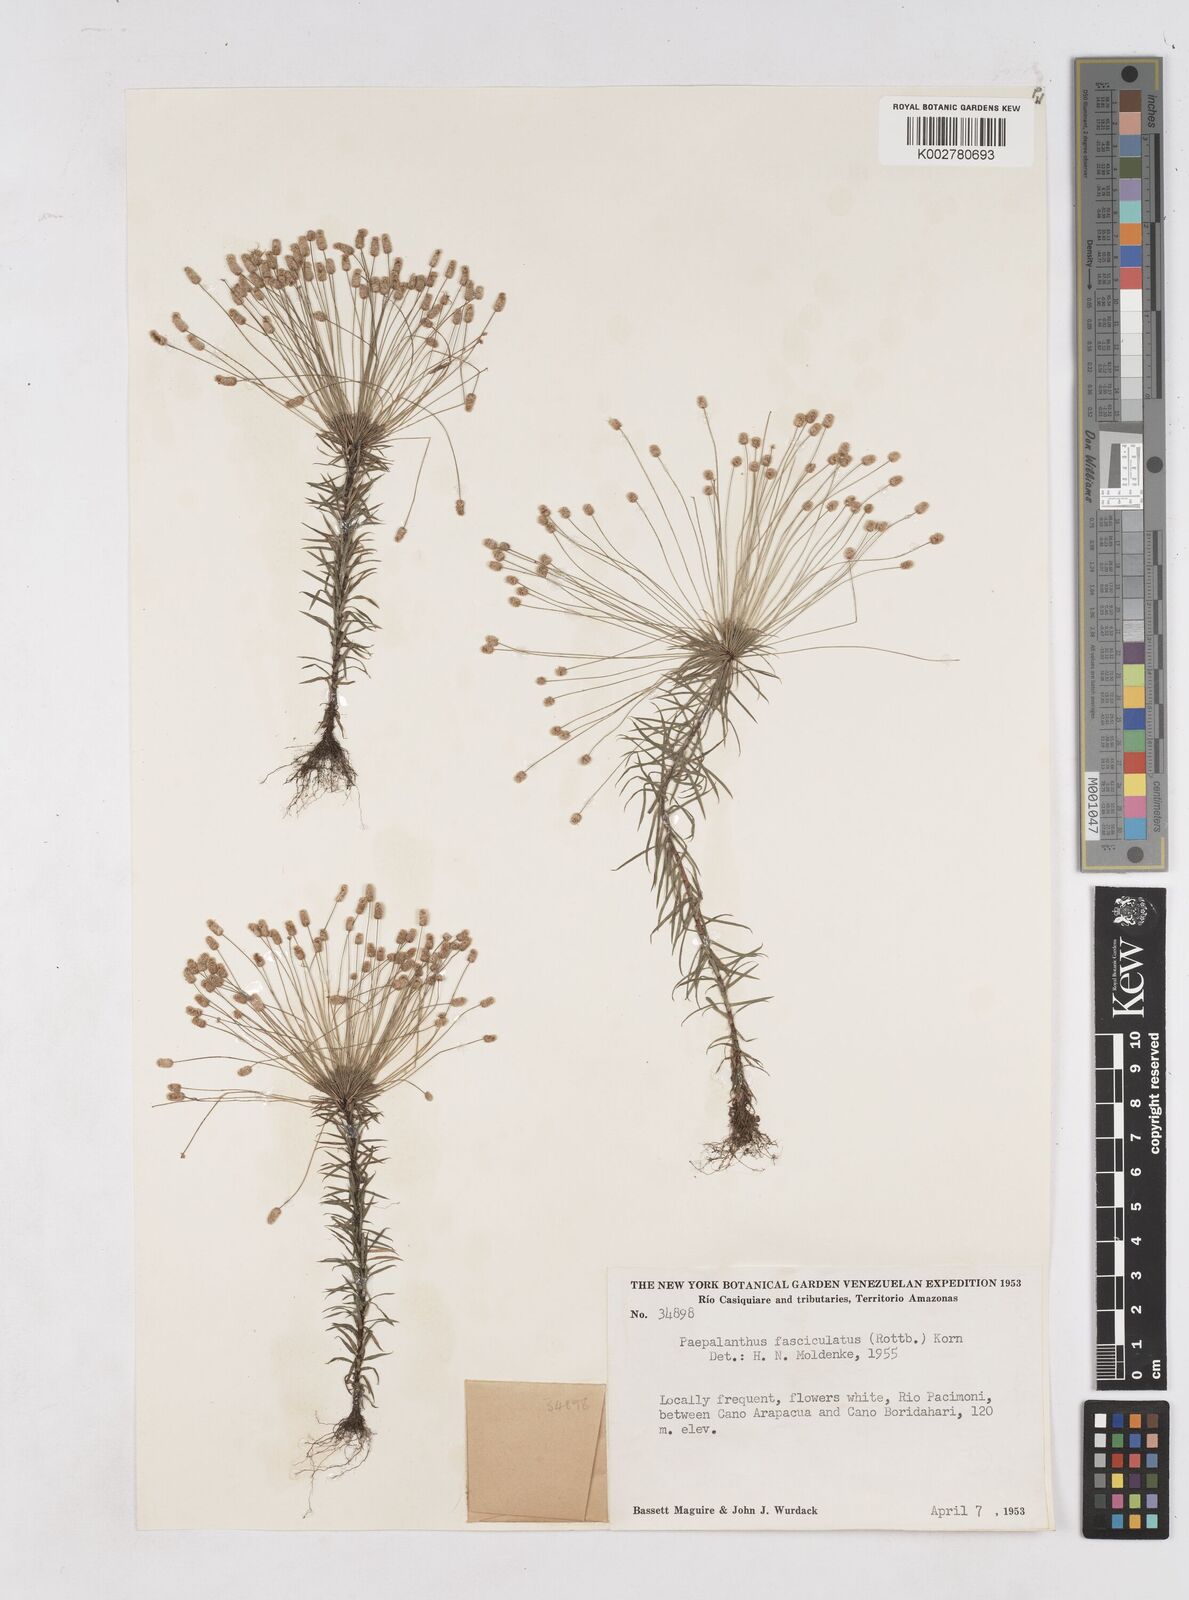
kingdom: Plantae
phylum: Tracheophyta
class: Liliopsida
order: Poales
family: Eriocaulaceae
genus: Paepalanthus
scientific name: Paepalanthus fasciculatus
